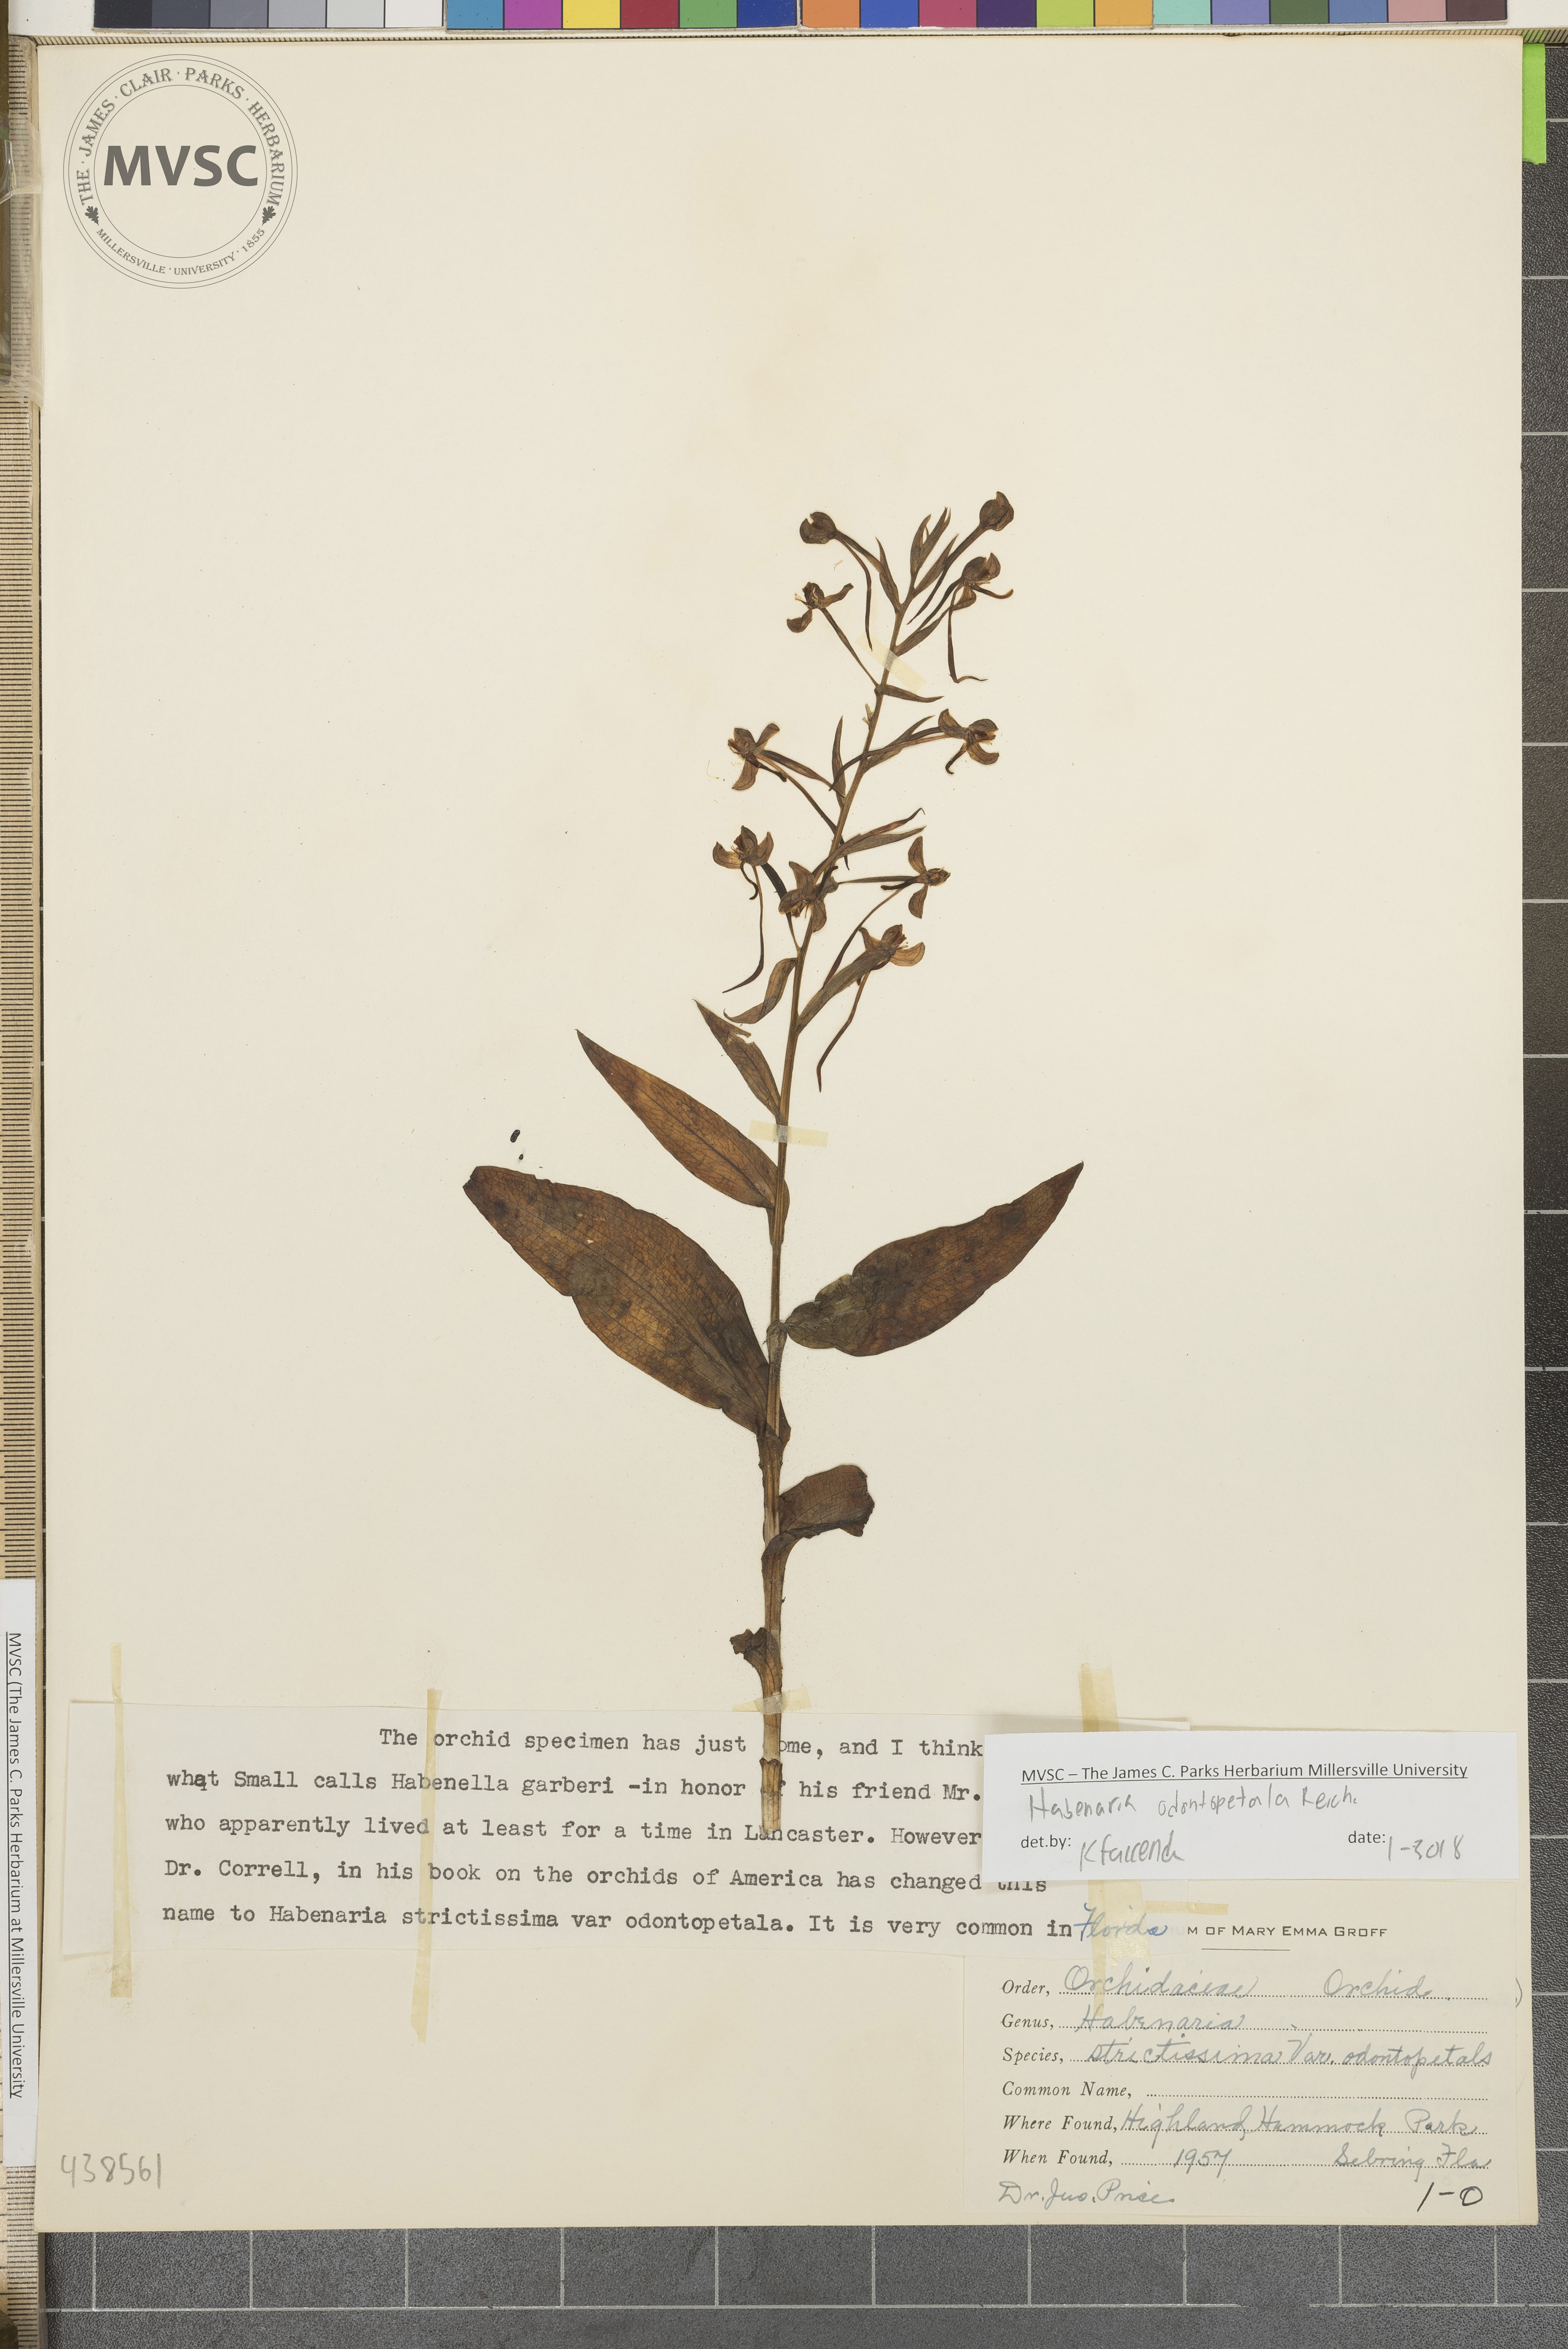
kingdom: Plantae
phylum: Tracheophyta
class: Liliopsida
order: Asparagales
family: Orchidaceae
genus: Habenaria
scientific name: Habenaria floribunda
